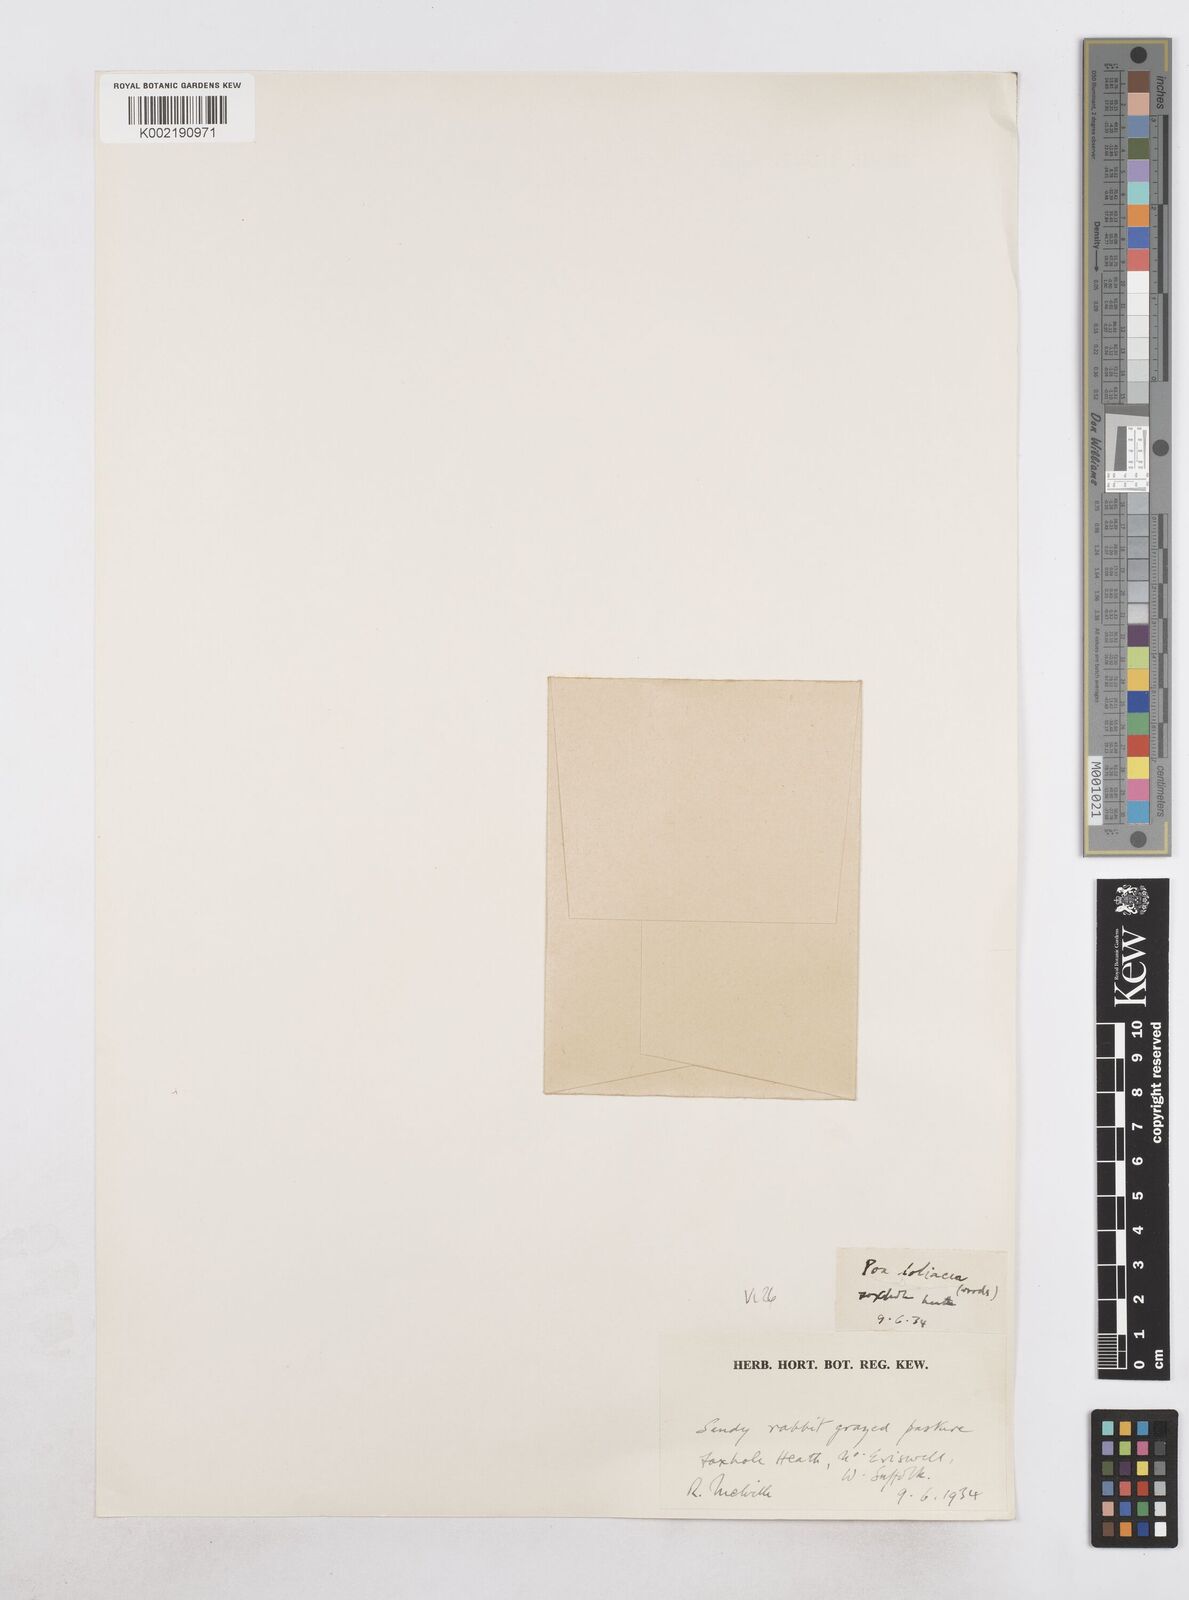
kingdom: Plantae
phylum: Tracheophyta
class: Liliopsida
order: Poales
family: Poaceae
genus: Catapodium
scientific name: Catapodium
